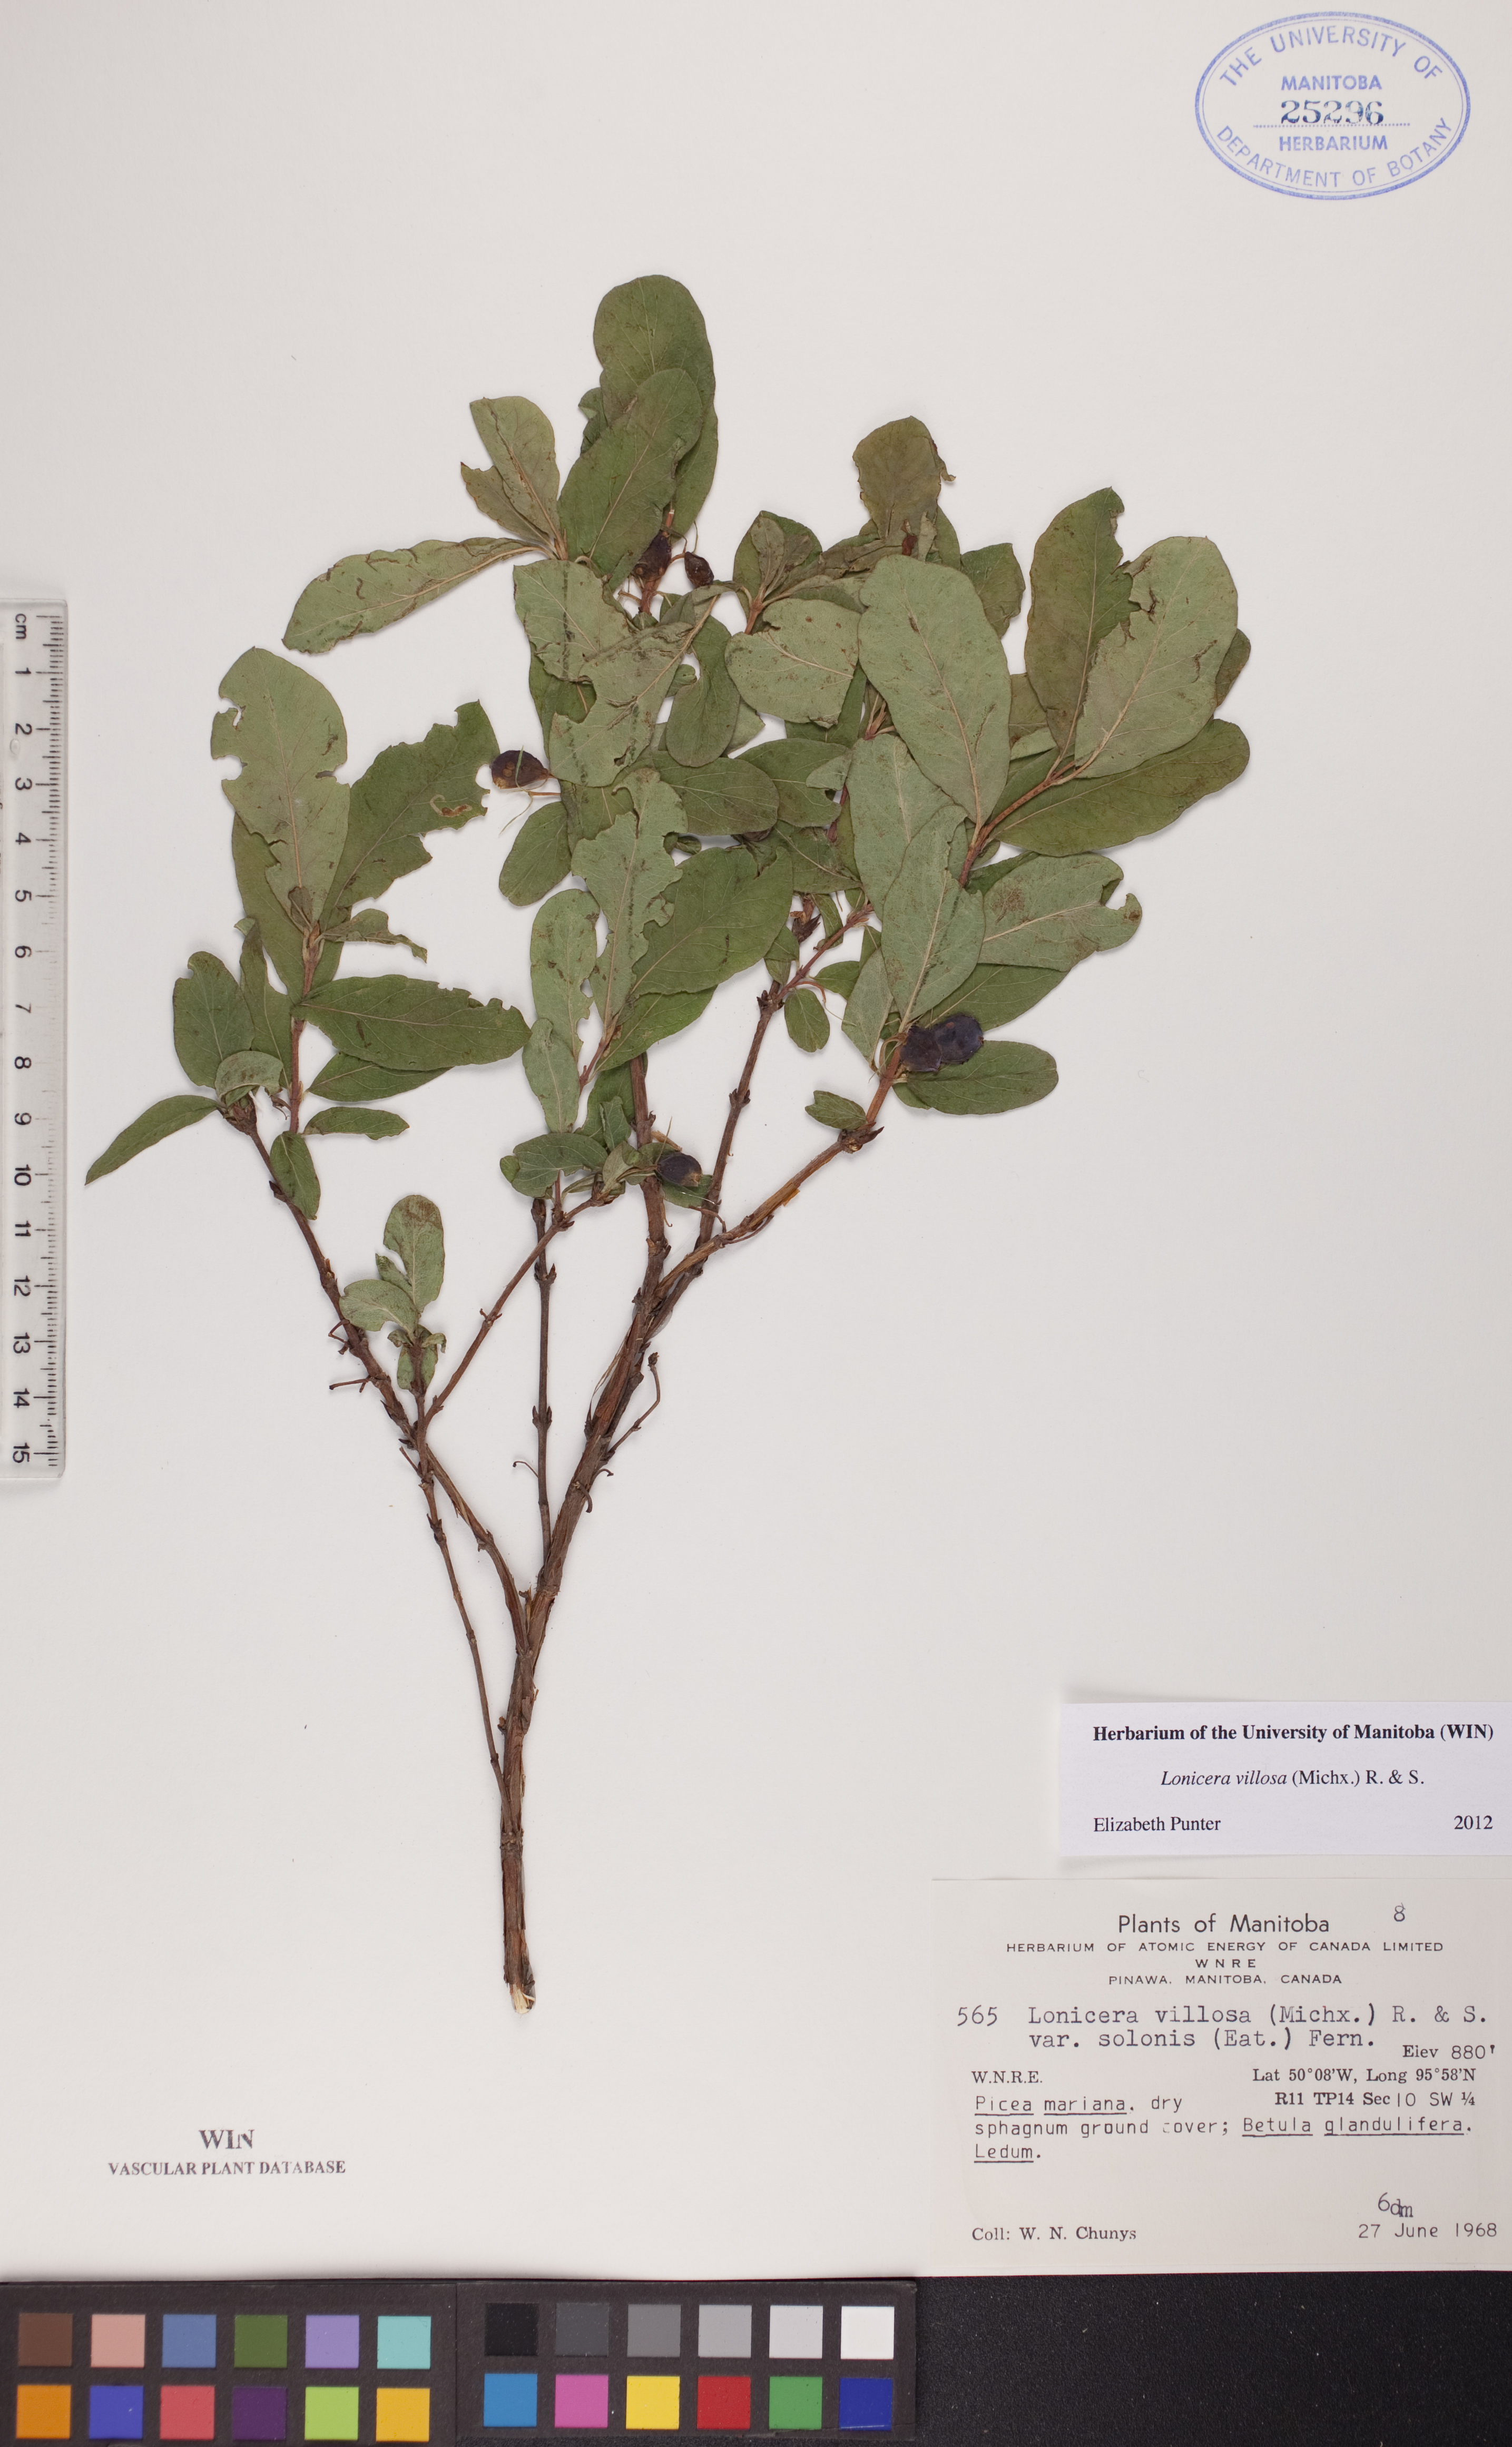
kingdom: Plantae
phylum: Tracheophyta
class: Magnoliopsida
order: Dipsacales
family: Caprifoliaceae
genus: Lonicera
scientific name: Lonicera villosa
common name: Mountain fly-honeysuckle
